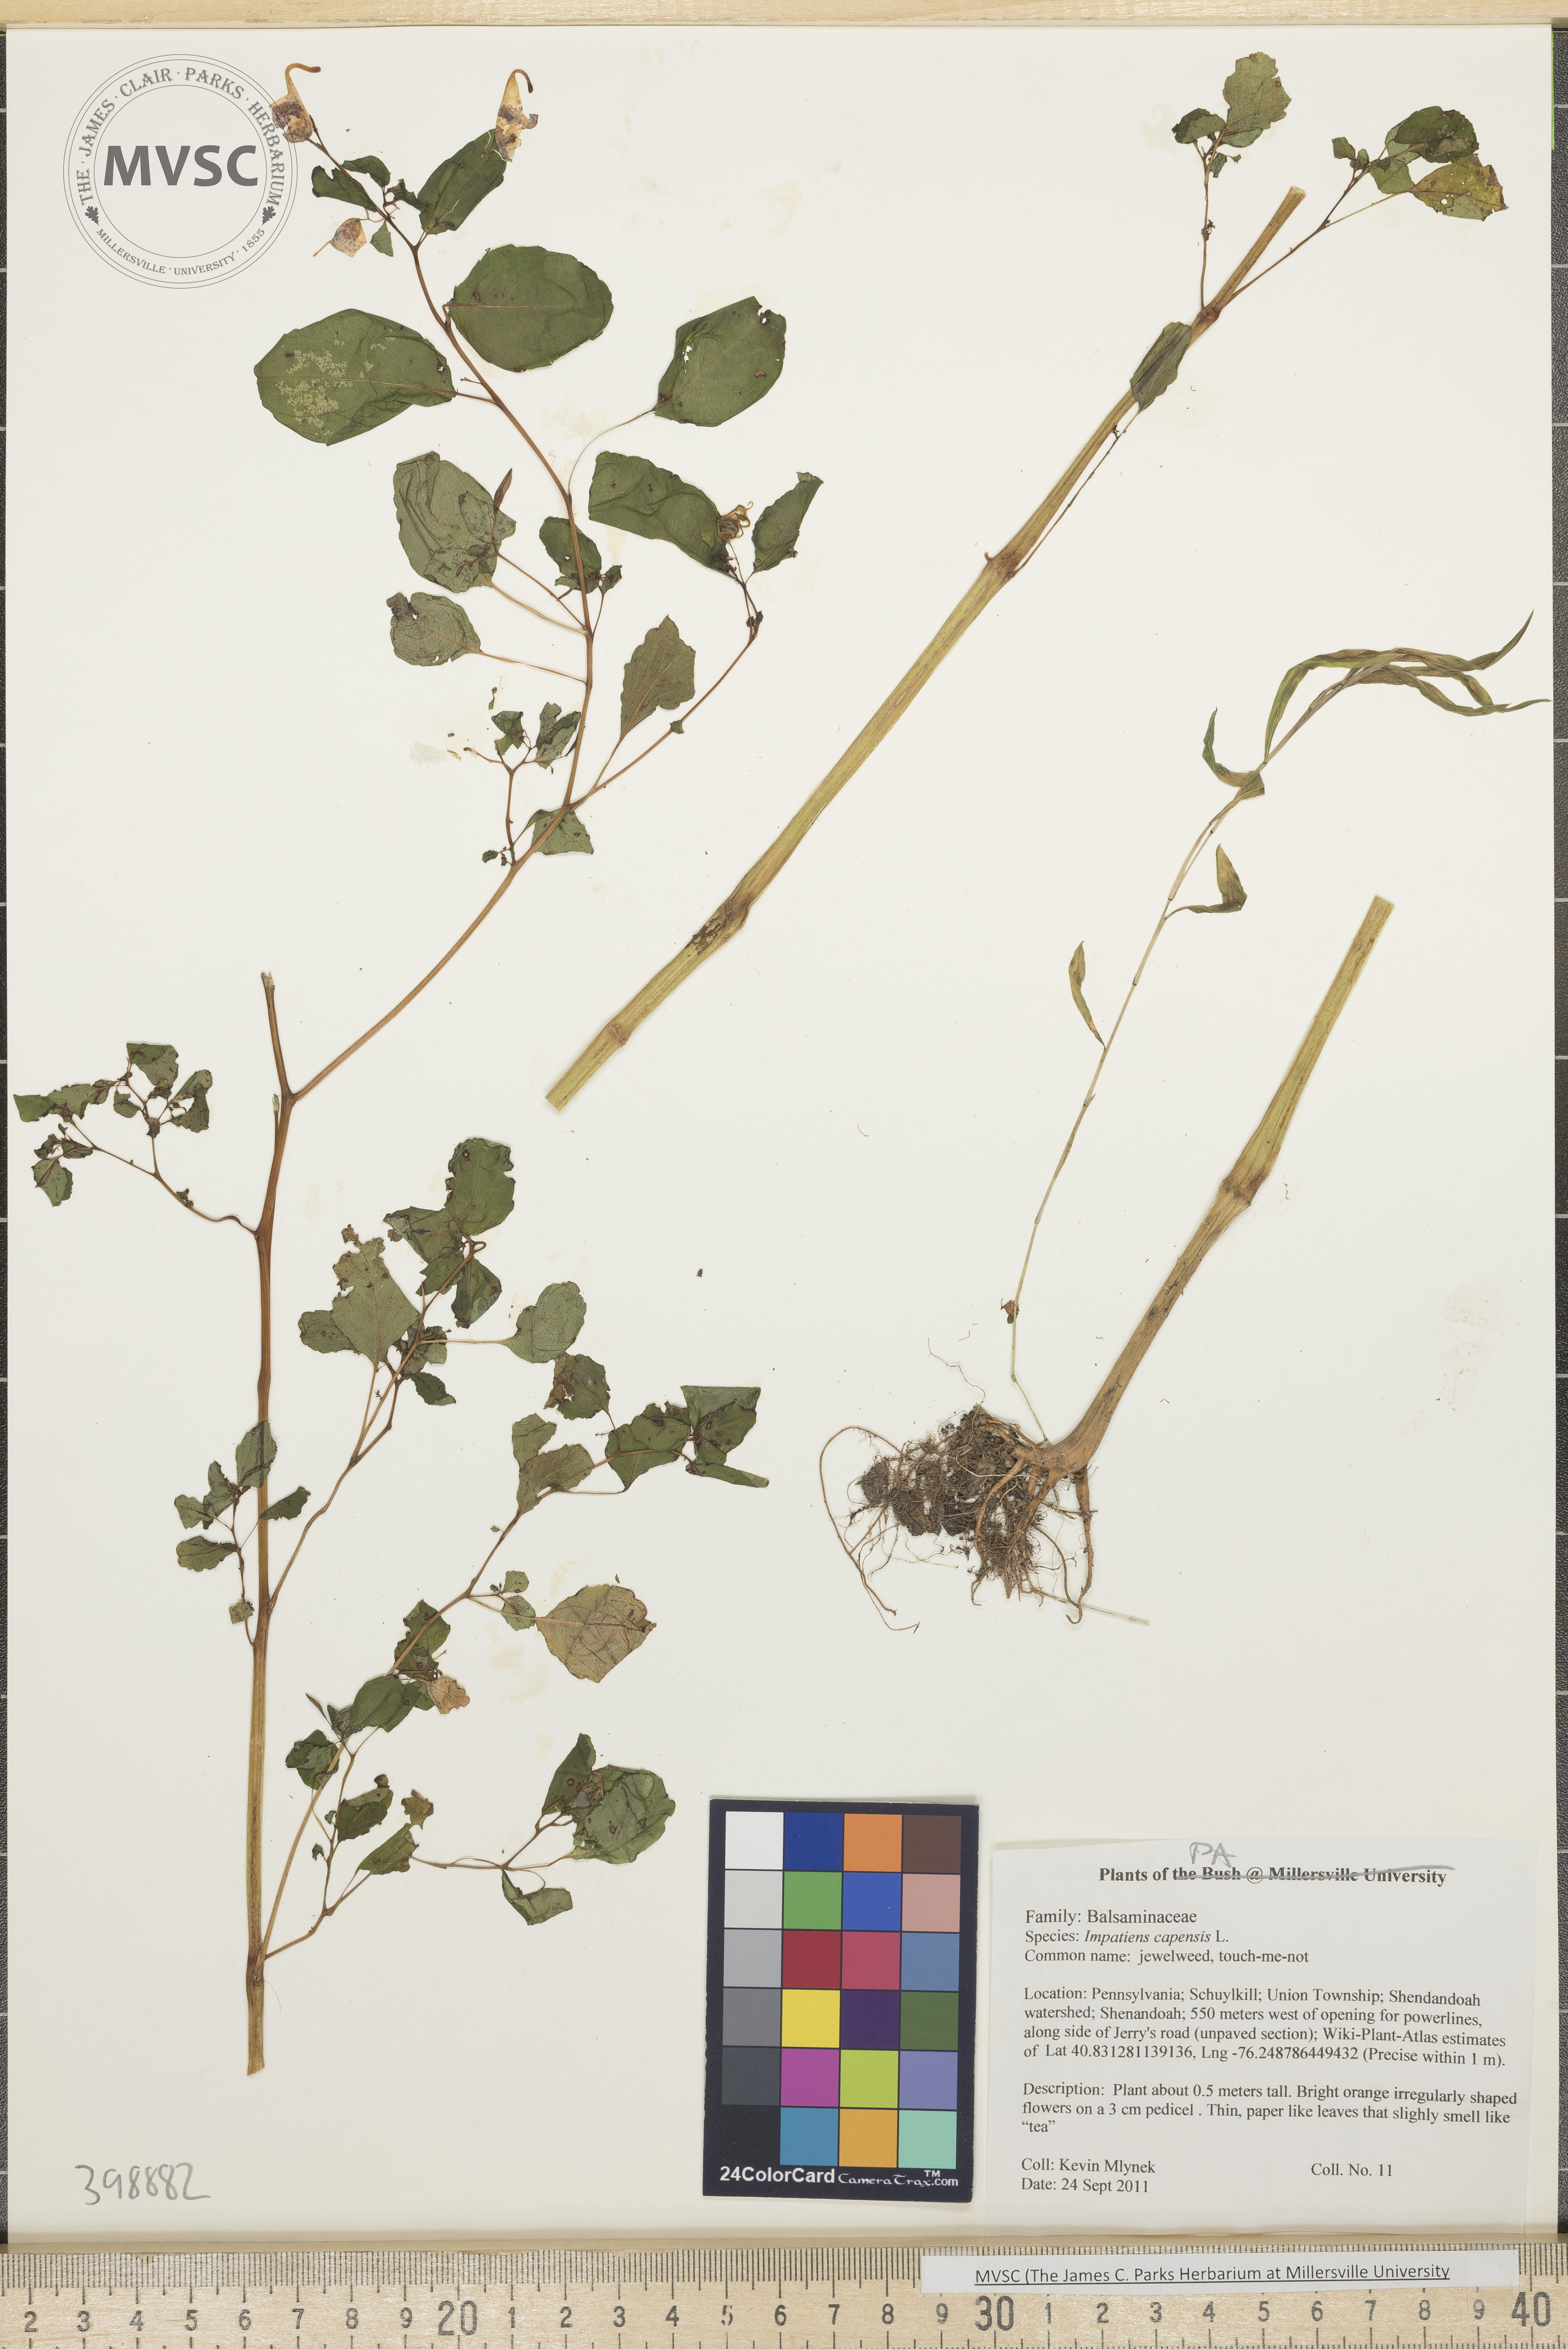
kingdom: Plantae
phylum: Tracheophyta
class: Magnoliopsida
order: Ericales
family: Balsaminaceae
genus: Impatiens
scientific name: Impatiens capensis
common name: Jewelweed
